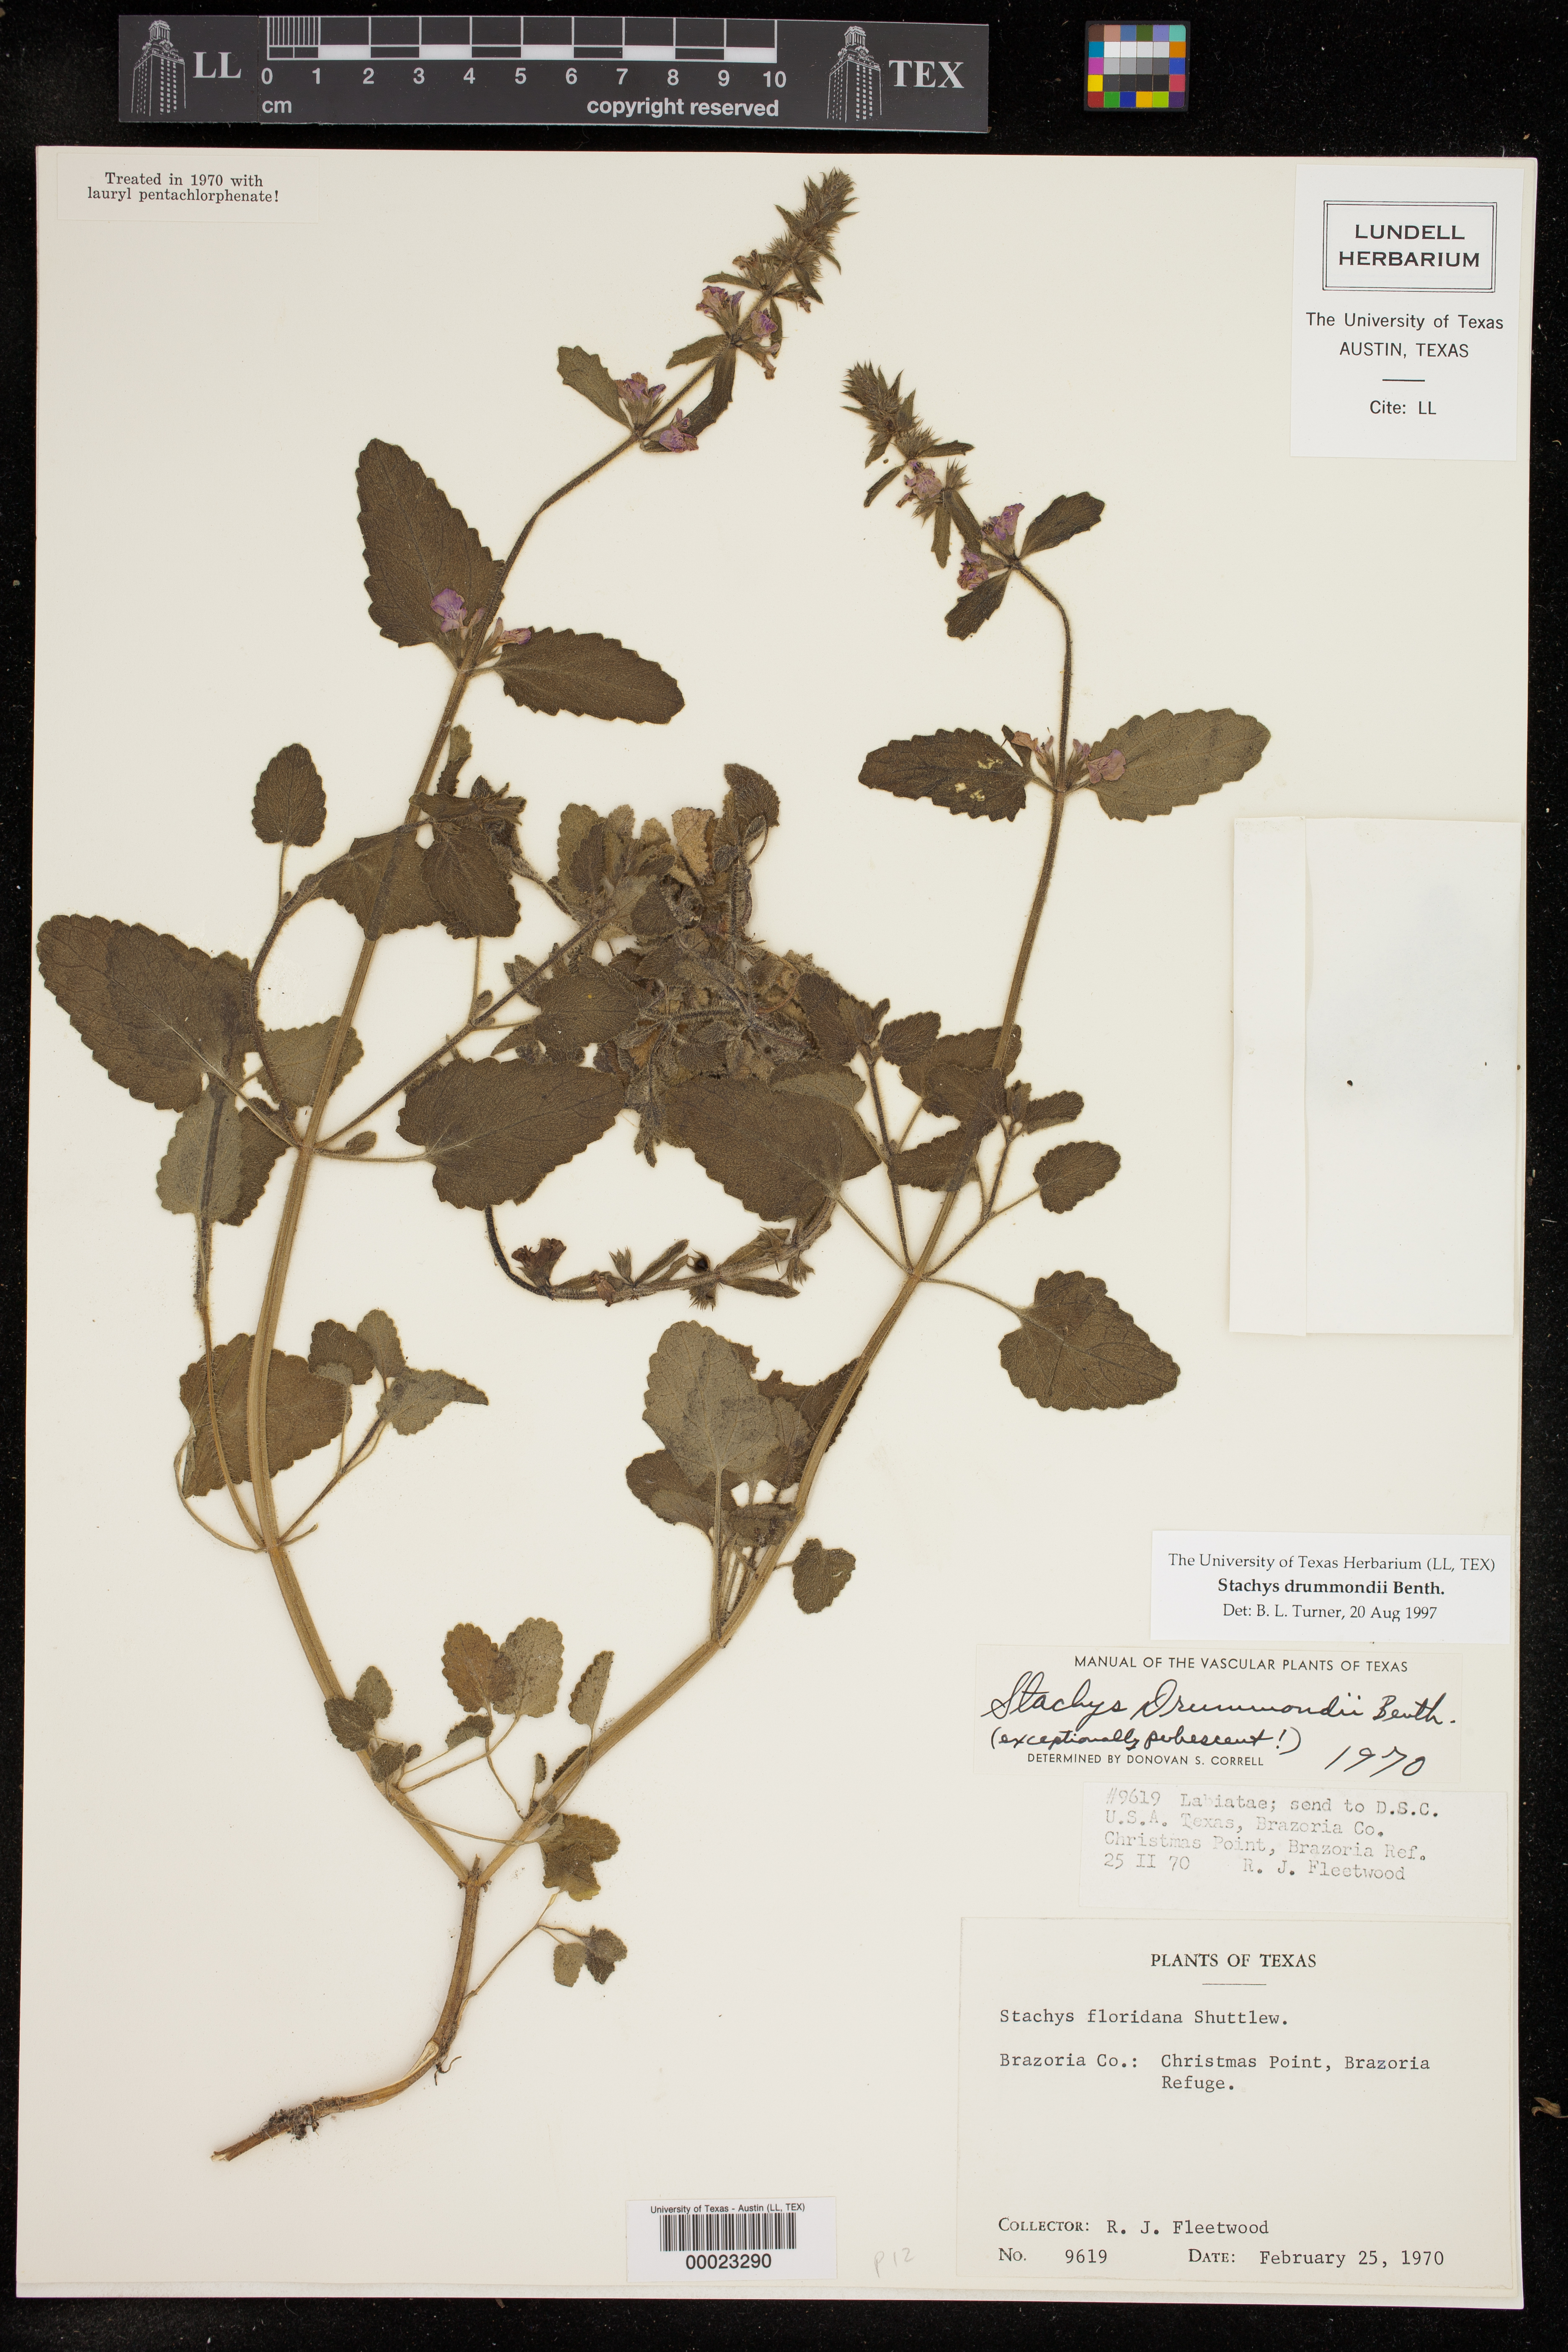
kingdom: Plantae
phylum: Tracheophyta
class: Magnoliopsida
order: Lamiales
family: Lamiaceae
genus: Stachys
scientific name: Stachys drummondii
